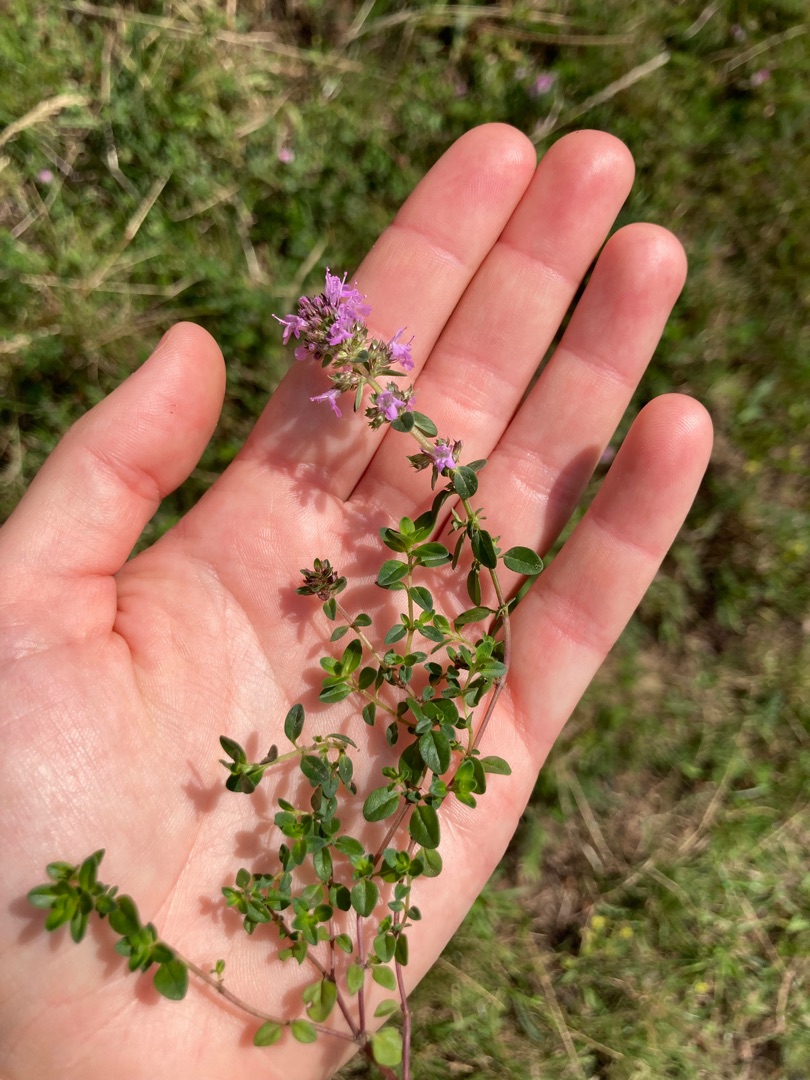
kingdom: Plantae
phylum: Tracheophyta
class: Magnoliopsida
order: Lamiales
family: Lamiaceae
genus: Thymus
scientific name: Thymus pulegioides
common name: Bredbladet timian
